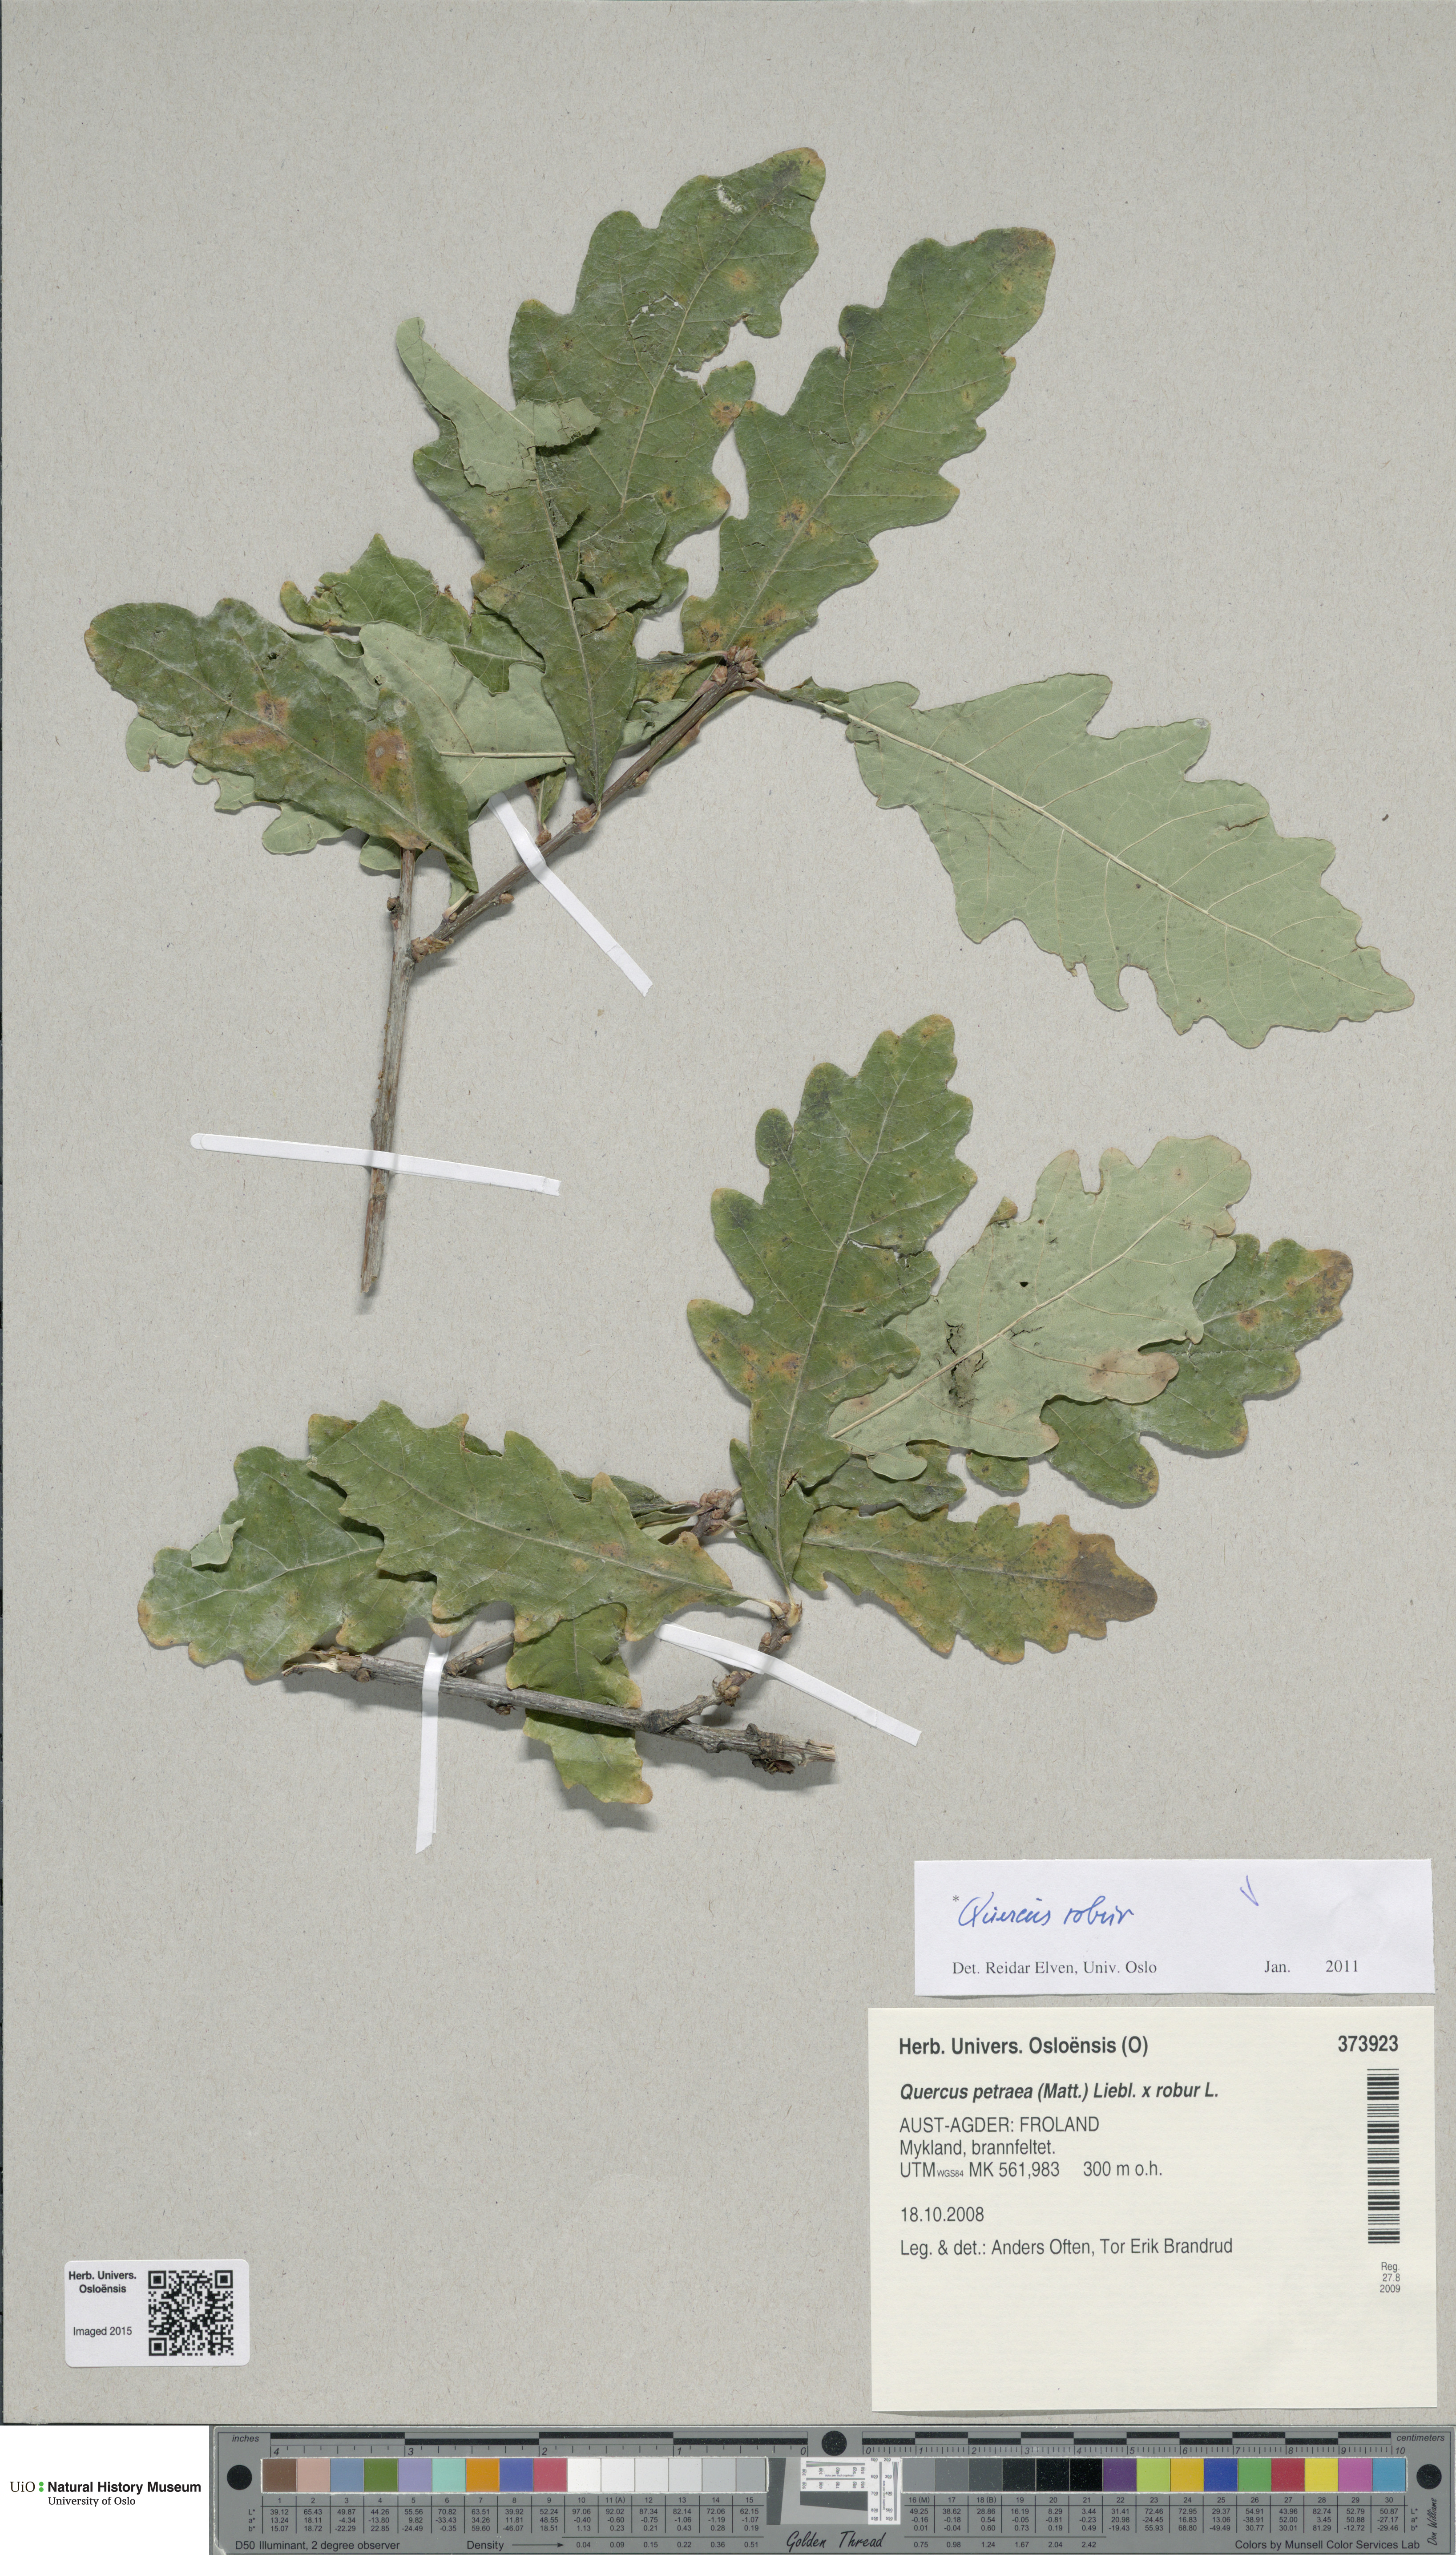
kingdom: Plantae
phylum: Tracheophyta
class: Magnoliopsida
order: Fagales
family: Fagaceae
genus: Quercus
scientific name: Quercus robur
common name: Pedunculate oak
